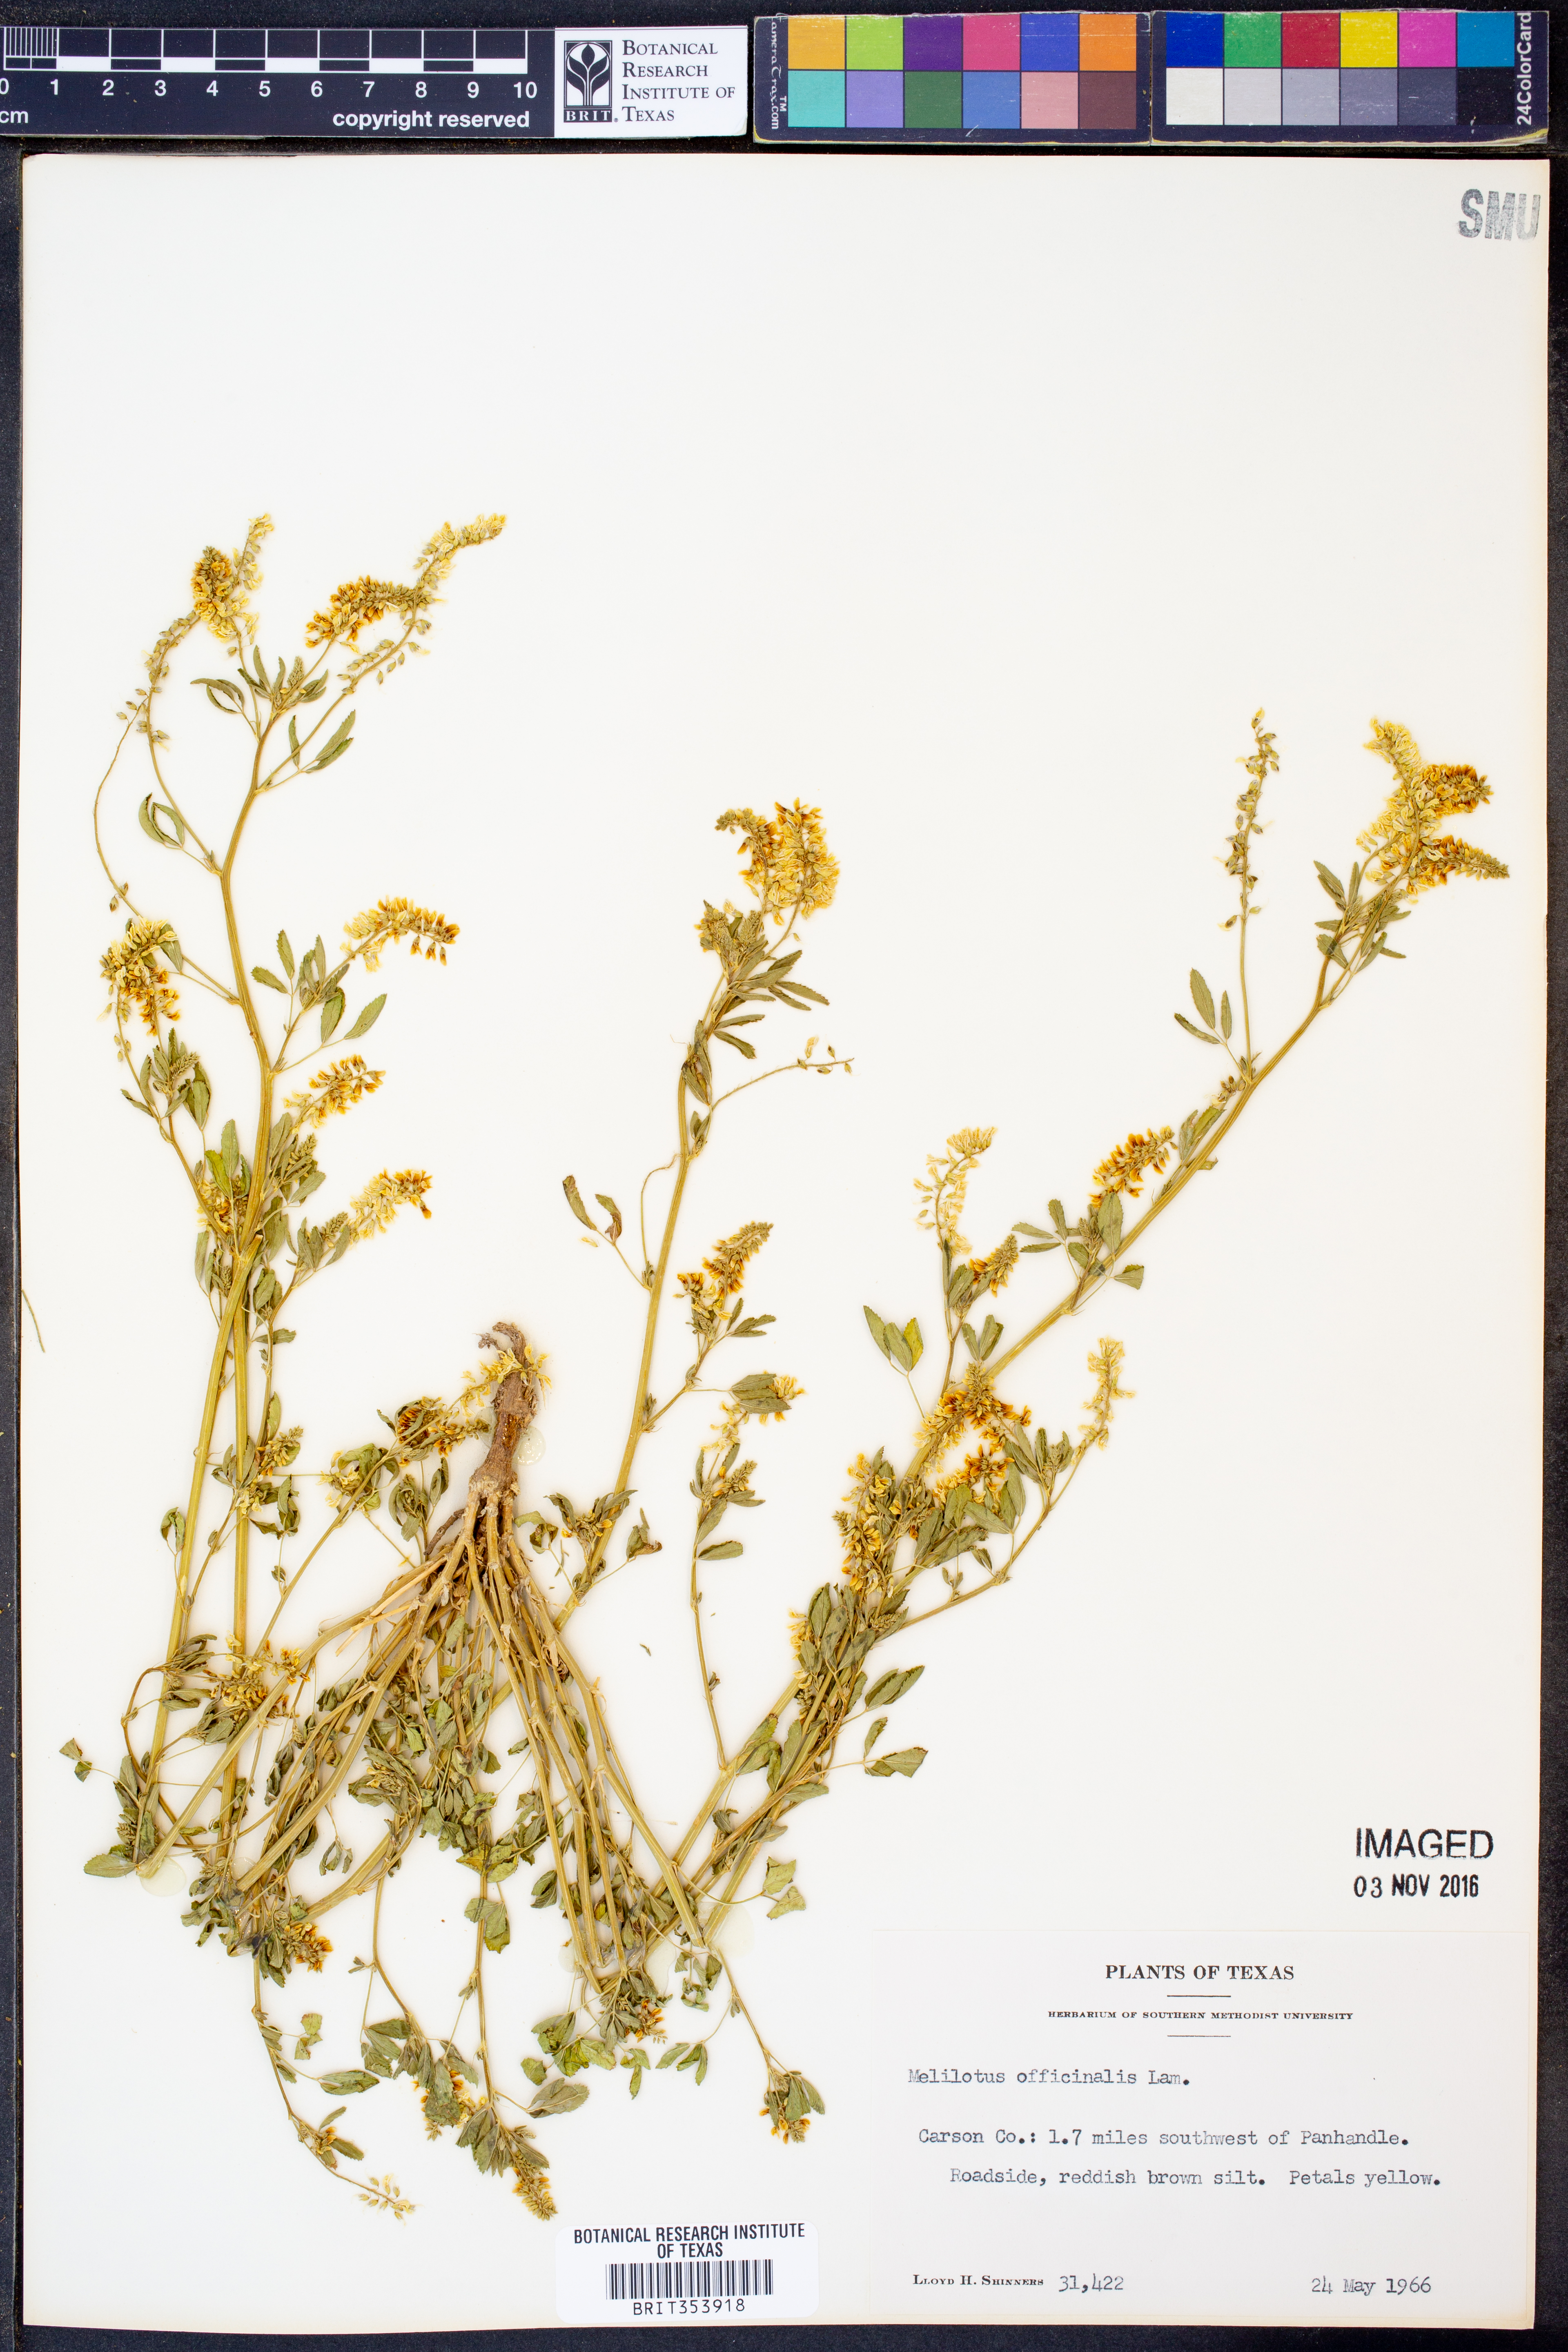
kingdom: Plantae
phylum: Tracheophyta
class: Magnoliopsida
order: Fabales
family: Fabaceae
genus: Melilotus
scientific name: Melilotus officinalis
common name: Sweetclover
